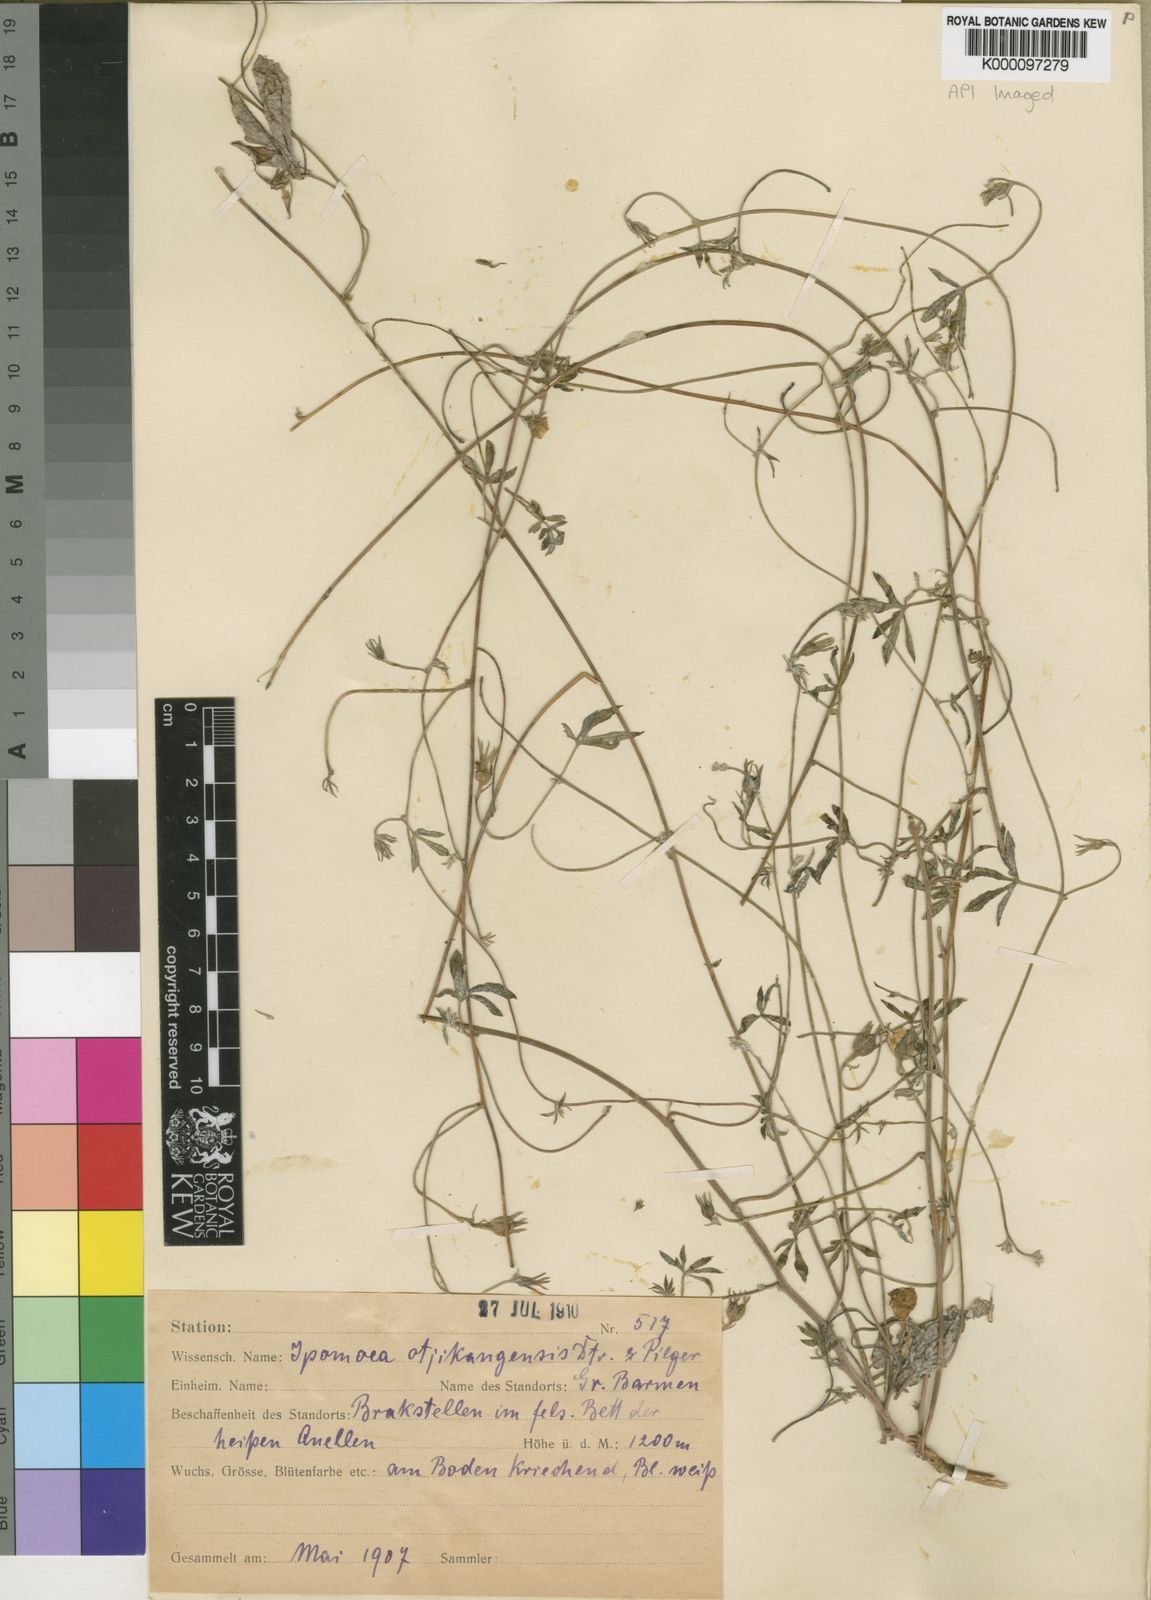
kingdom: Plantae
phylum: Tracheophyta
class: Magnoliopsida
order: Solanales
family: Convolvulaceae
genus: Ipomoea
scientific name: Ipomoea magnusiana
